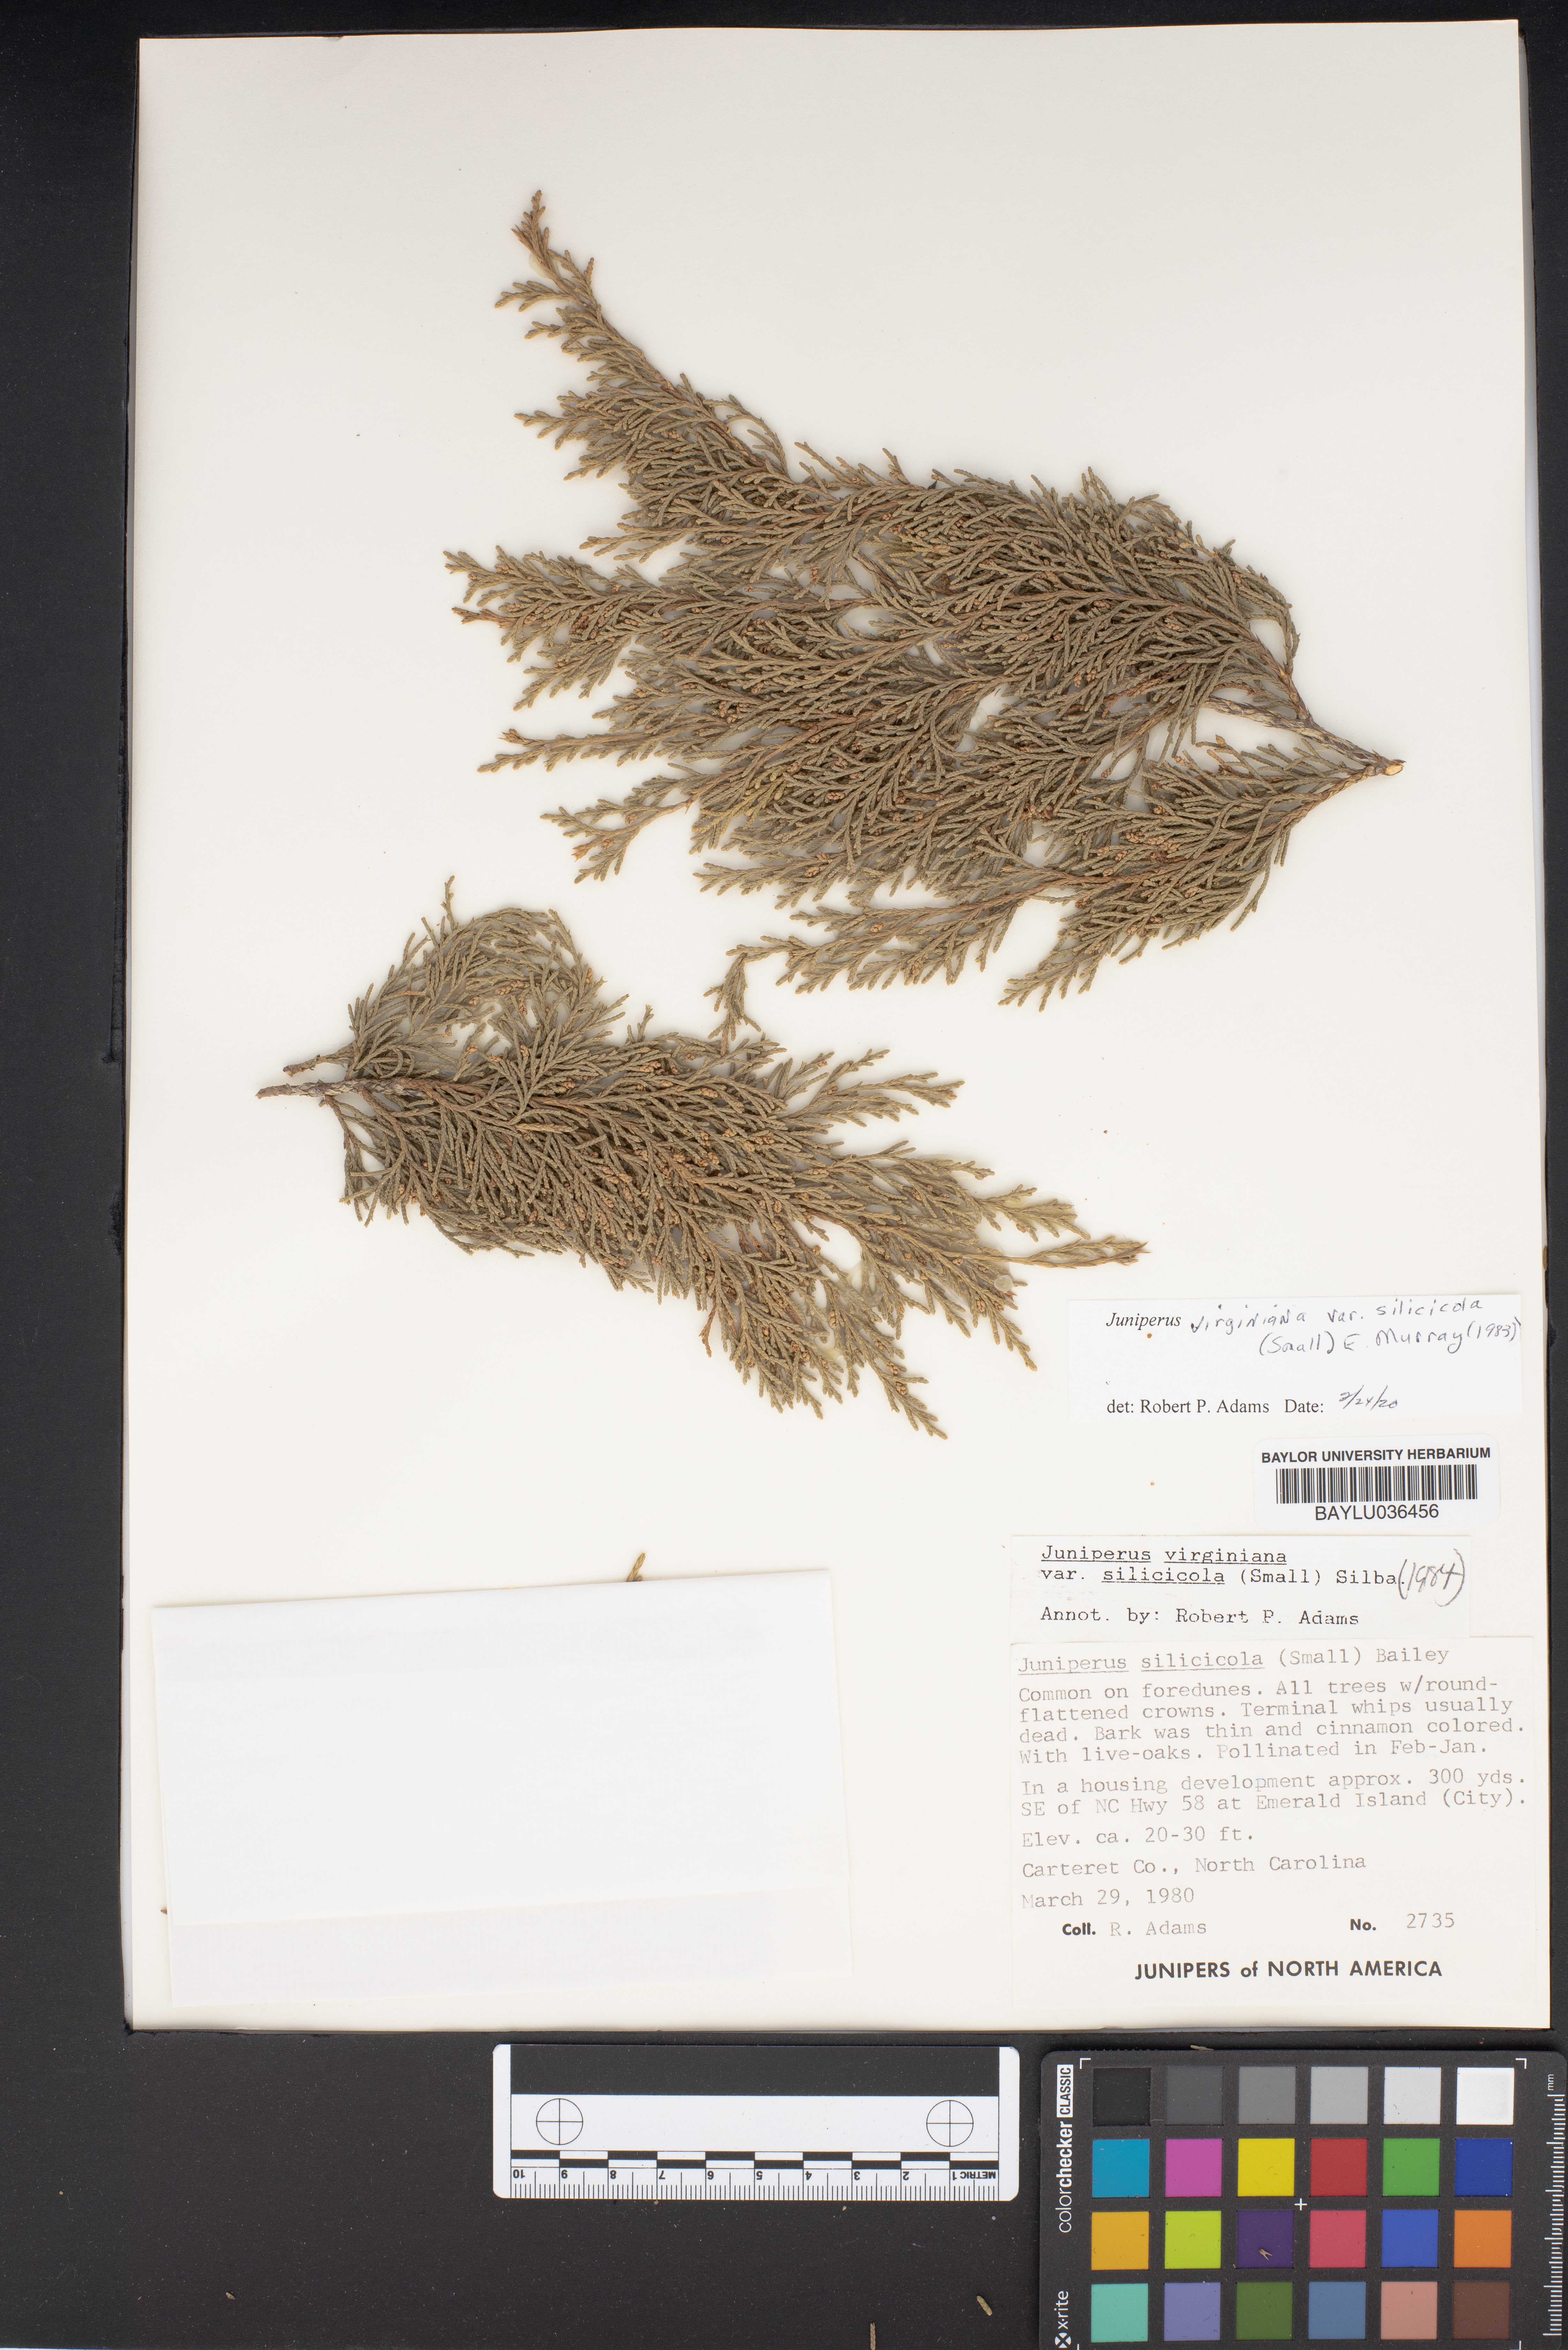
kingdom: Plantae
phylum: Tracheophyta
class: Pinopsida
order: Pinales
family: Cupressaceae
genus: Juniperus
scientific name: Juniperus virginiana
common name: Red juniper
